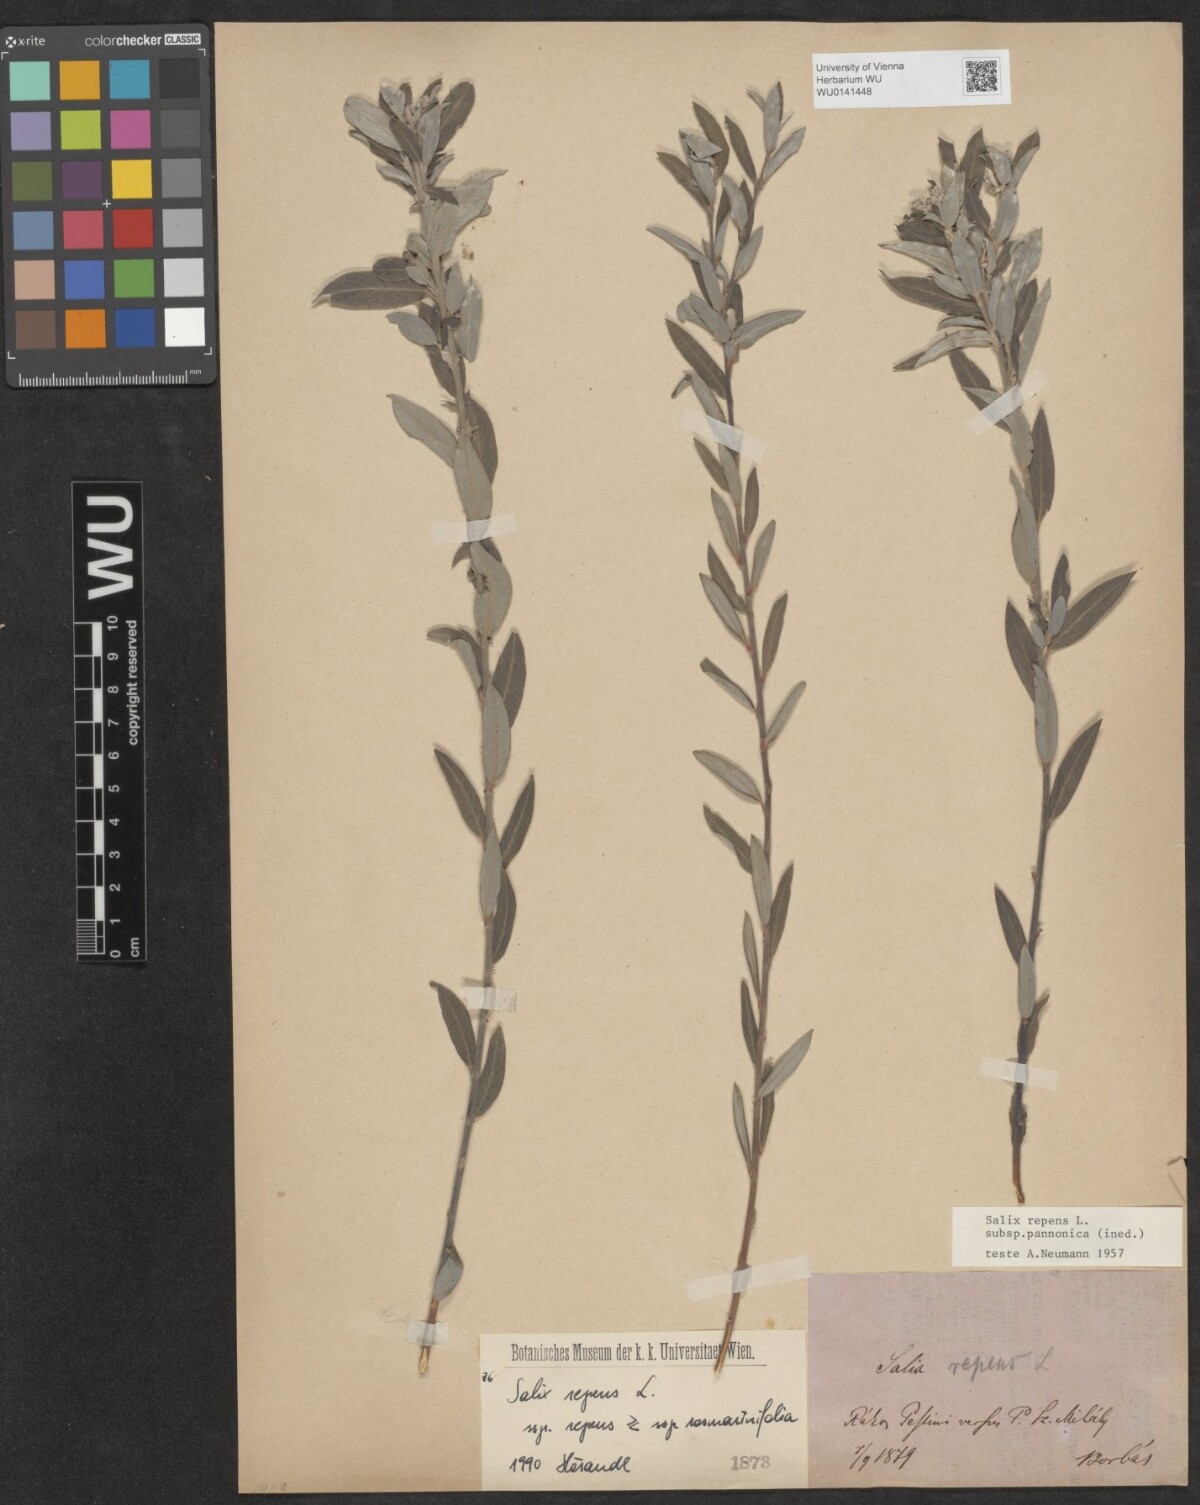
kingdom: Plantae
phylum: Tracheophyta
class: Magnoliopsida
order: Malpighiales
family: Salicaceae
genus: Salix
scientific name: Salix repens
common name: Creeping willow
